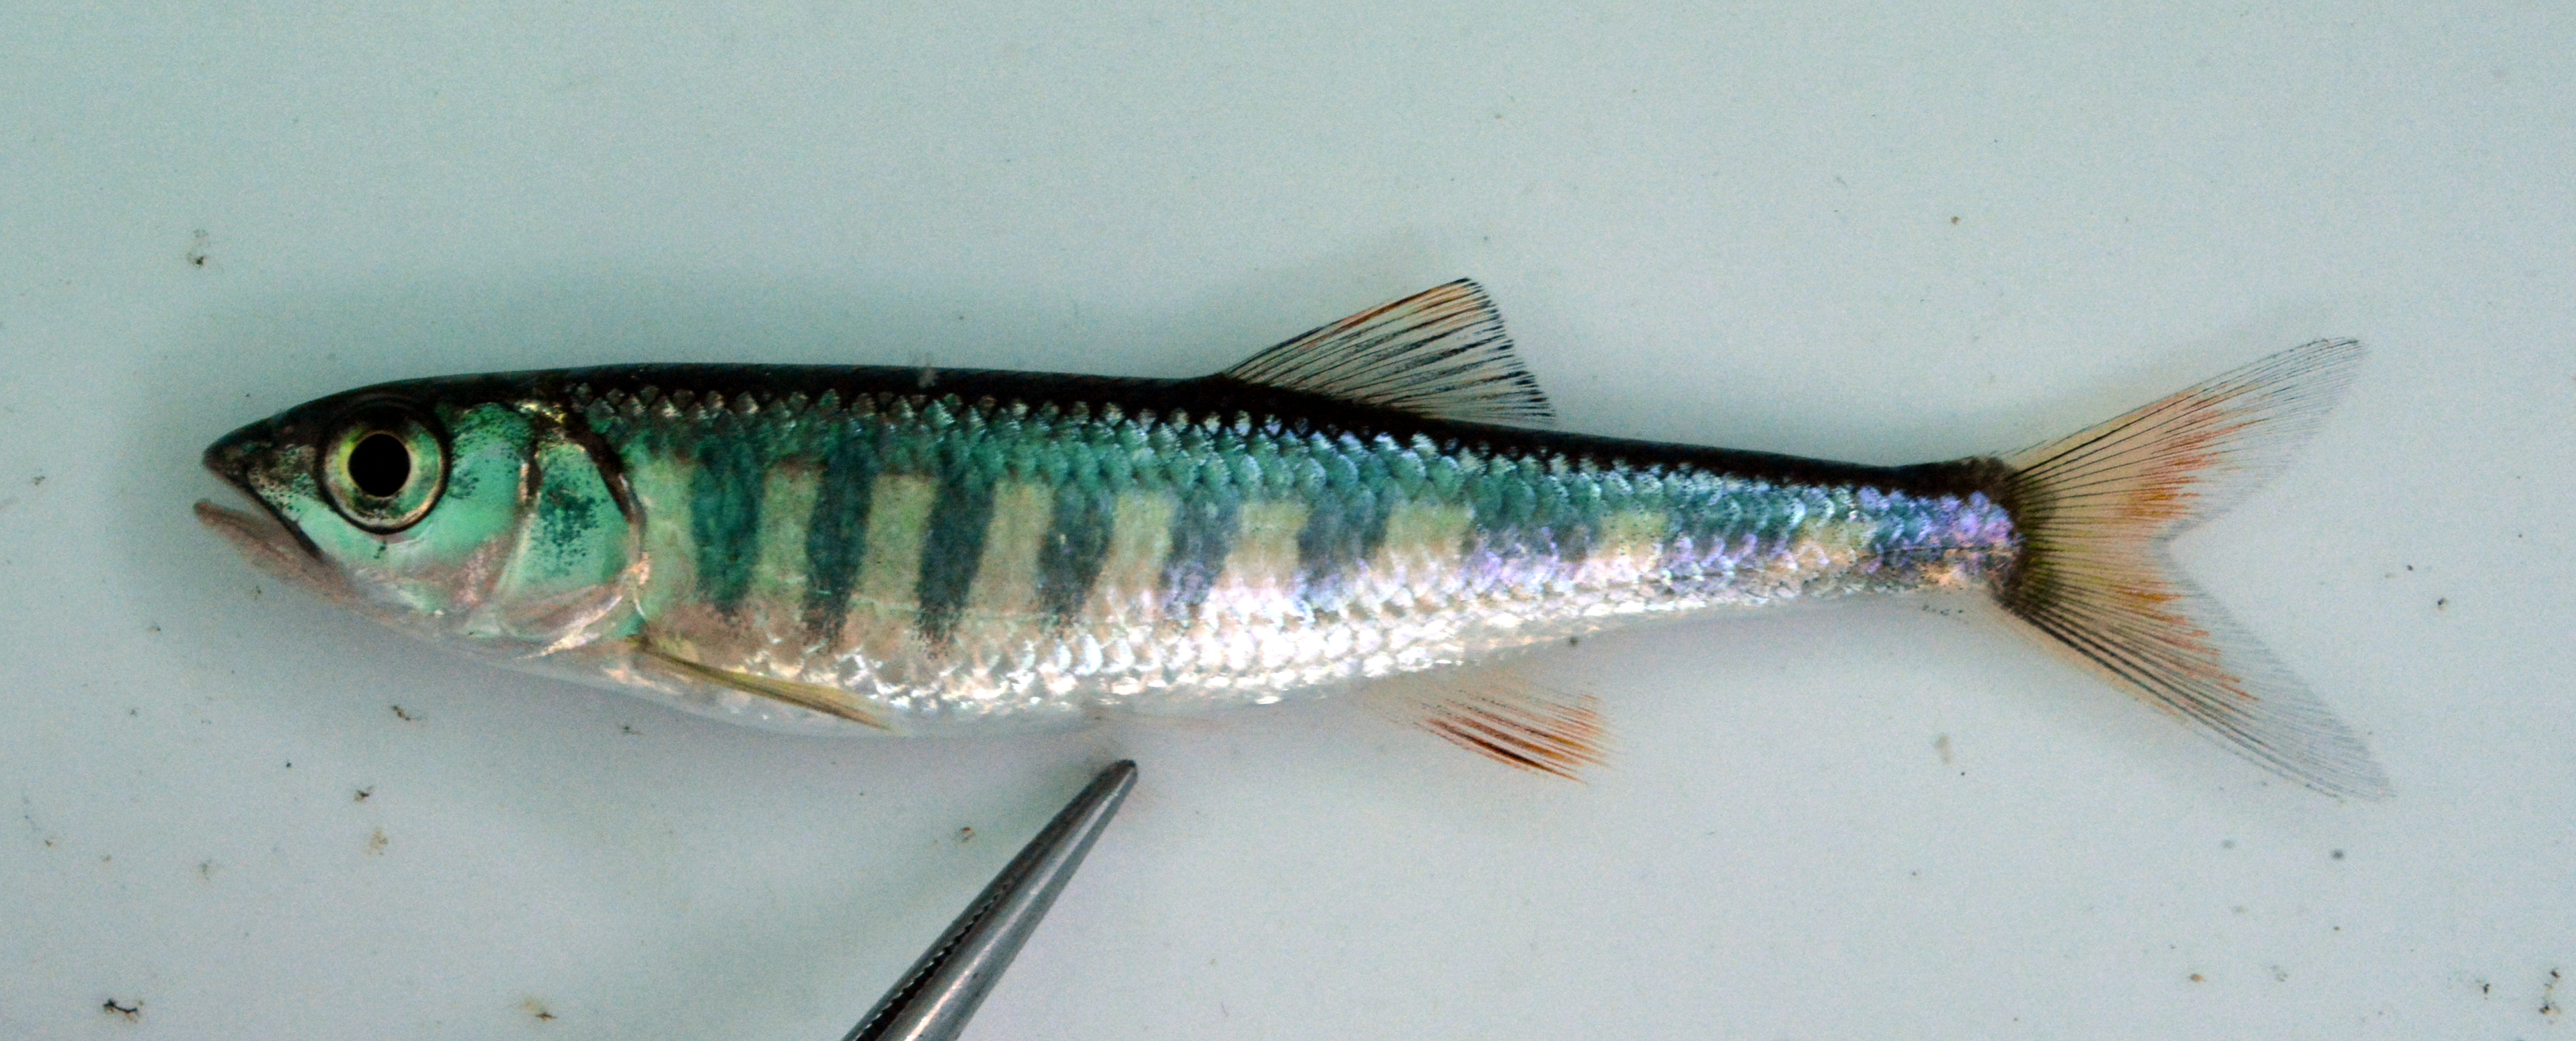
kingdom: Animalia
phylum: Chordata
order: Cypriniformes
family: Cyprinidae
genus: Opsaridium
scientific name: Opsaridium zambezense
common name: Barred minnow
